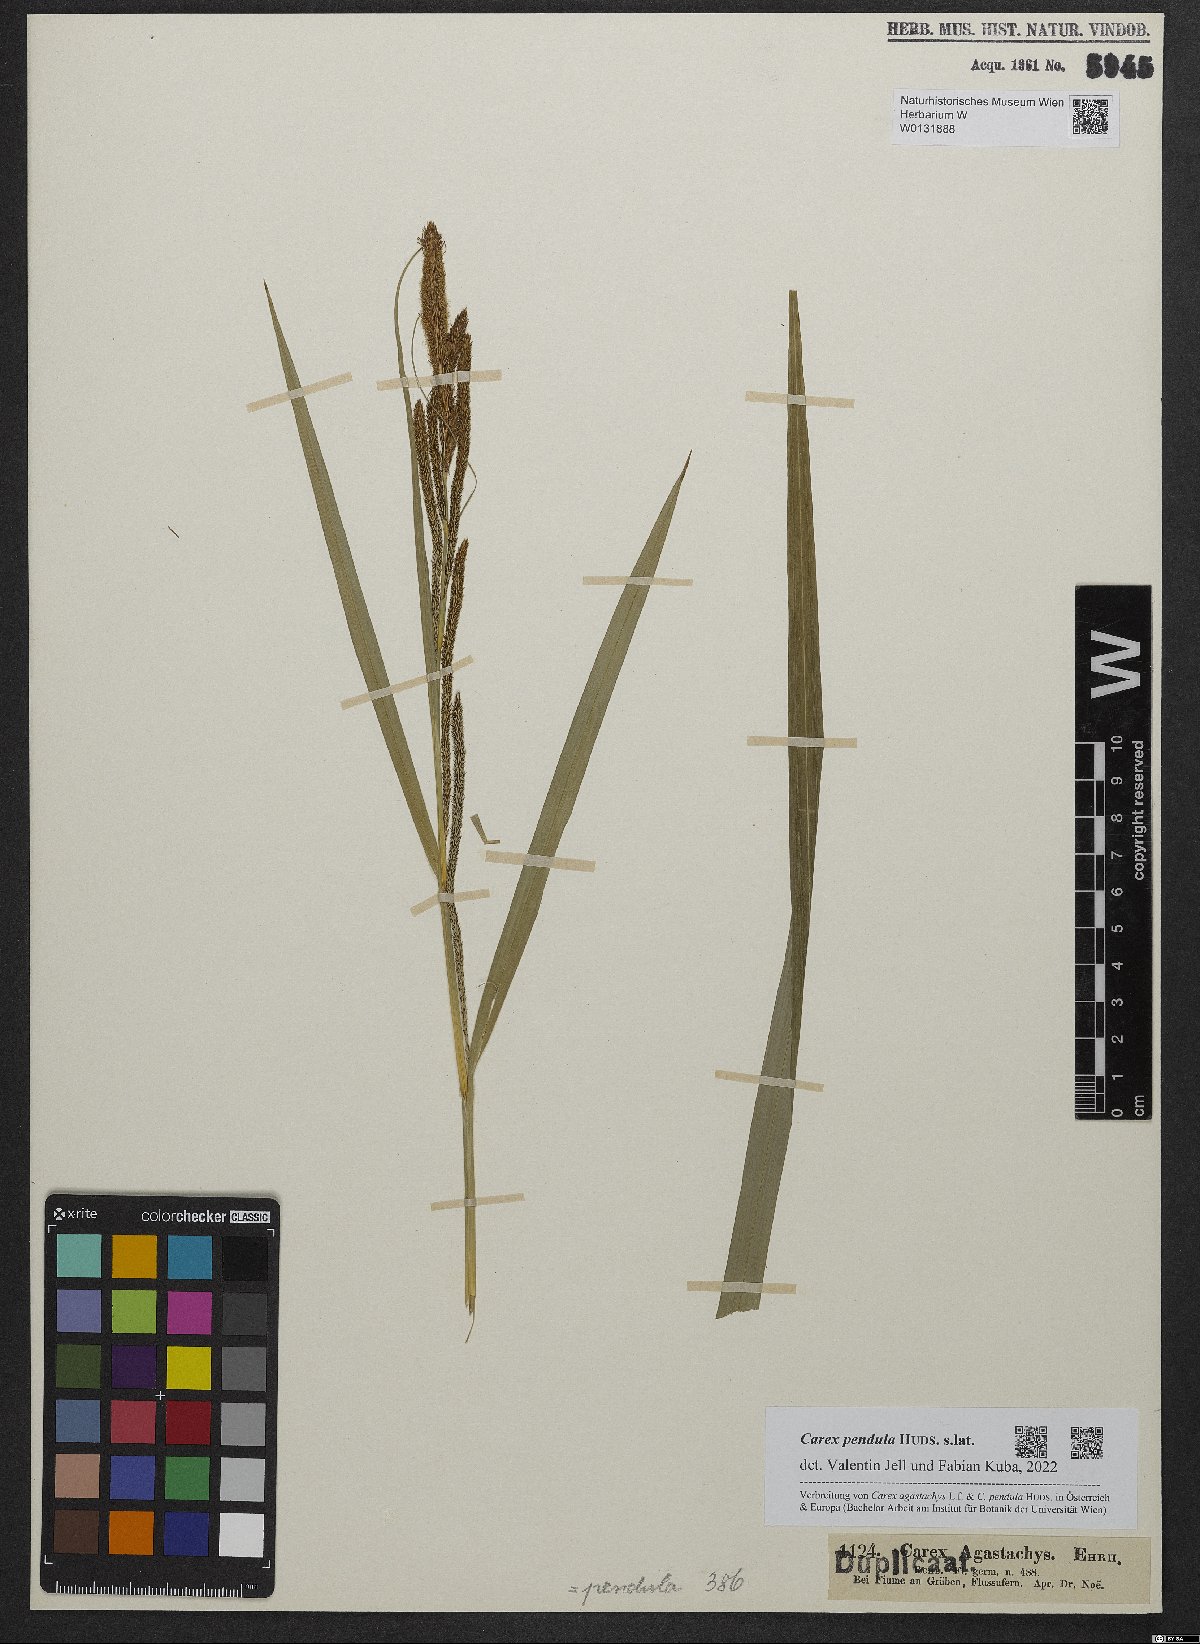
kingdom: Plantae
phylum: Tracheophyta
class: Liliopsida
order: Poales
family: Cyperaceae
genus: Carex
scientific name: Carex pendula
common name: Pendulous sedge
